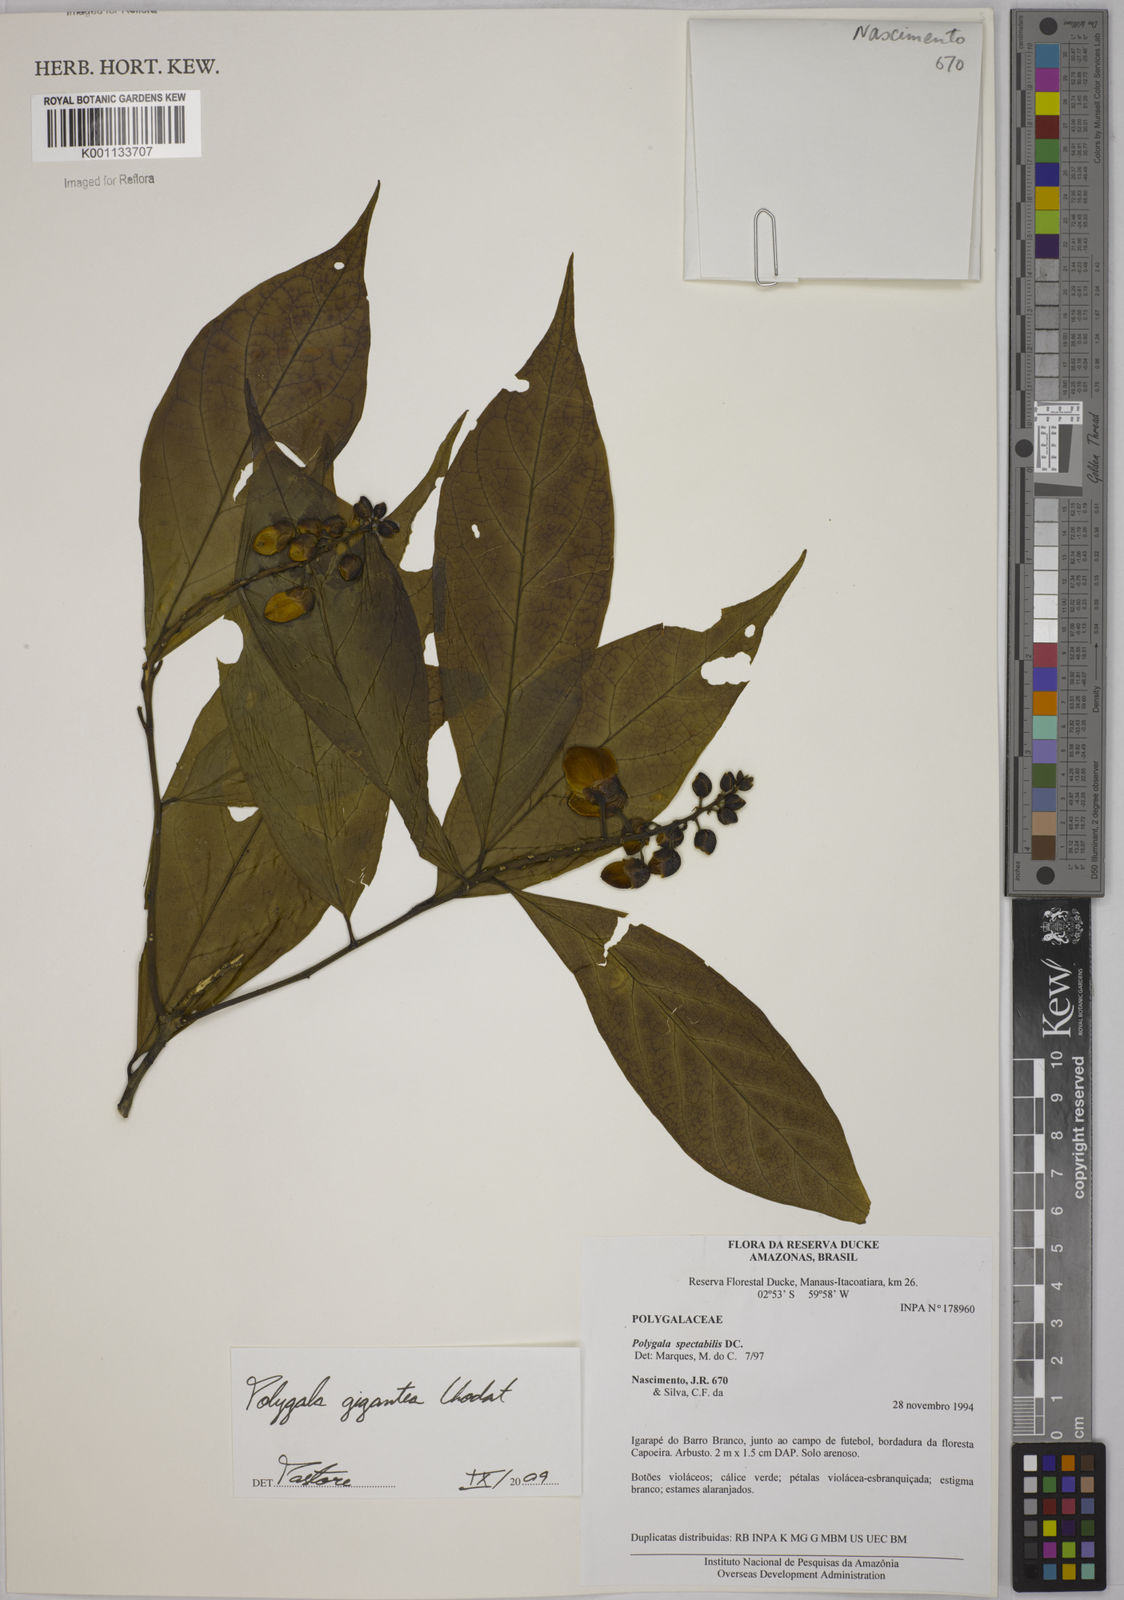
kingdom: Plantae
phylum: Tracheophyta
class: Magnoliopsida
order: Fabales
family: Polygalaceae
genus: Caamembeca
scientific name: Caamembeca gigantea
